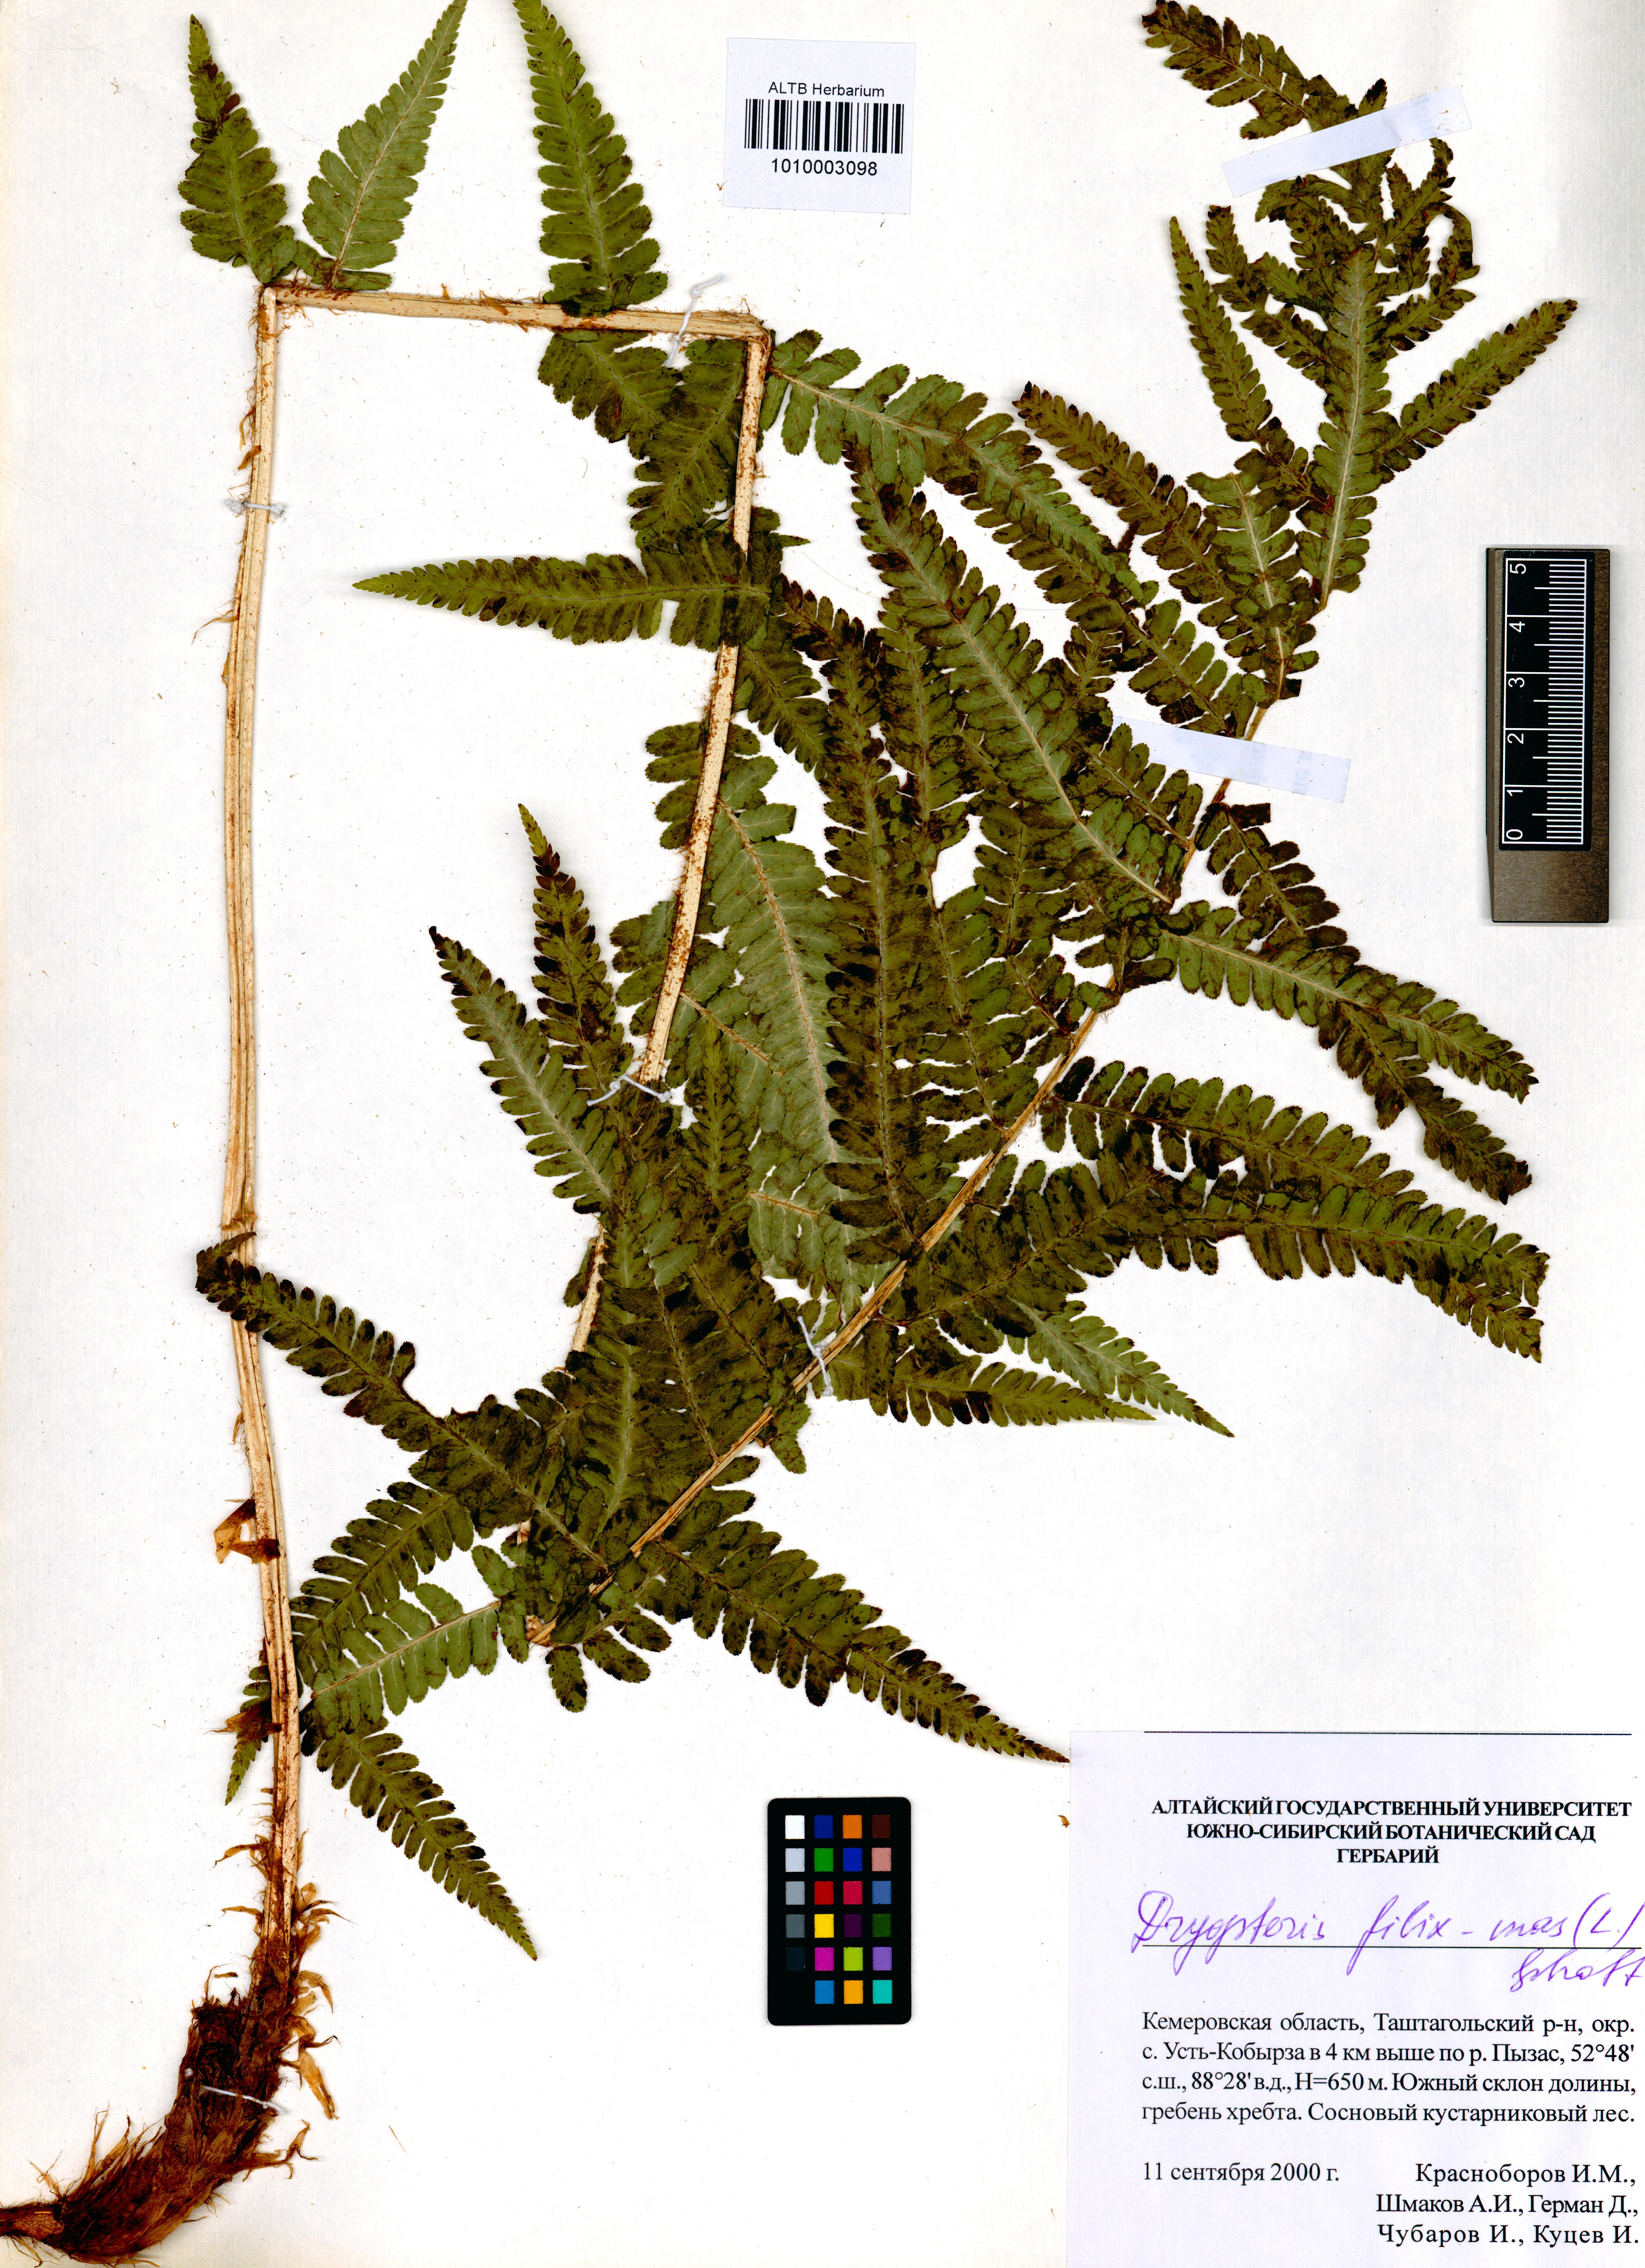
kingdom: Plantae
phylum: Tracheophyta
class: Polypodiopsida
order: Polypodiales
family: Dryopteridaceae
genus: Dryopteris
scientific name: Dryopteris filix-mas
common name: Male fern
